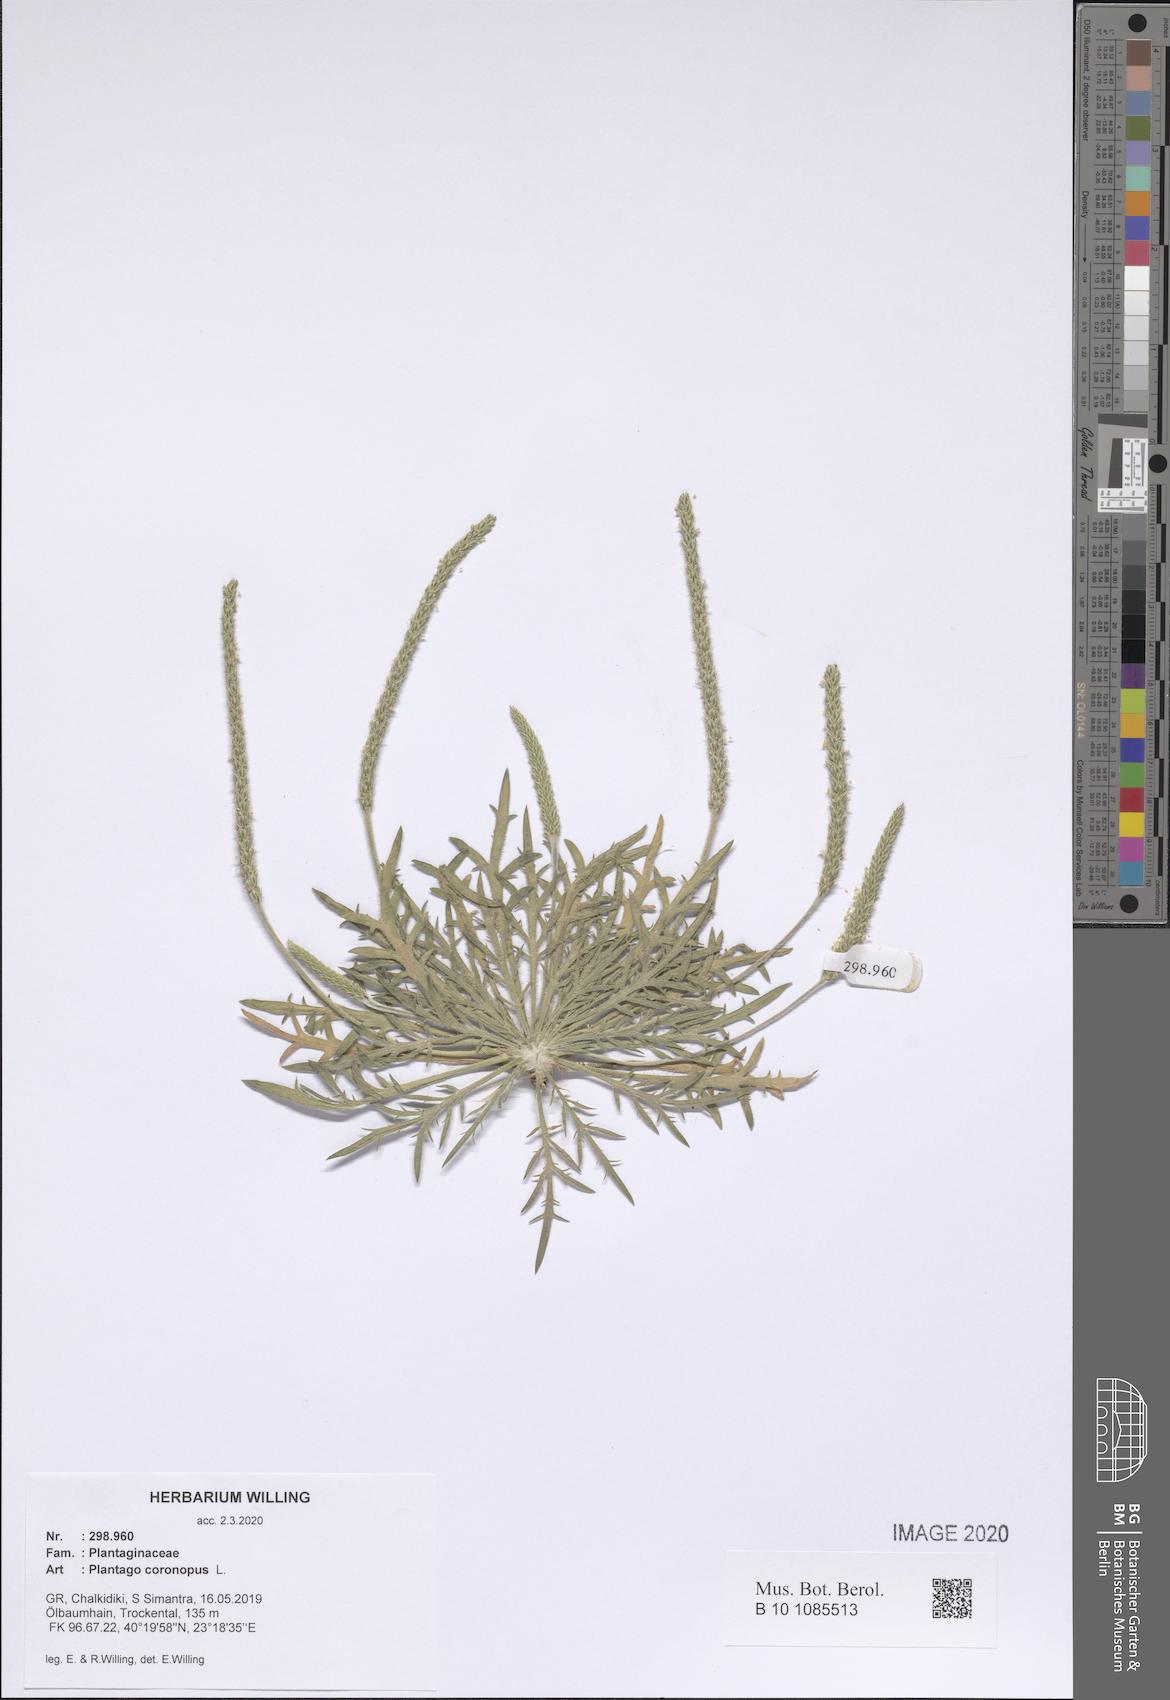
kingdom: Plantae
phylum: Tracheophyta
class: Magnoliopsida
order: Lamiales
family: Plantaginaceae
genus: Plantago
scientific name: Plantago coronopus
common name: Buck's-horn plantain
